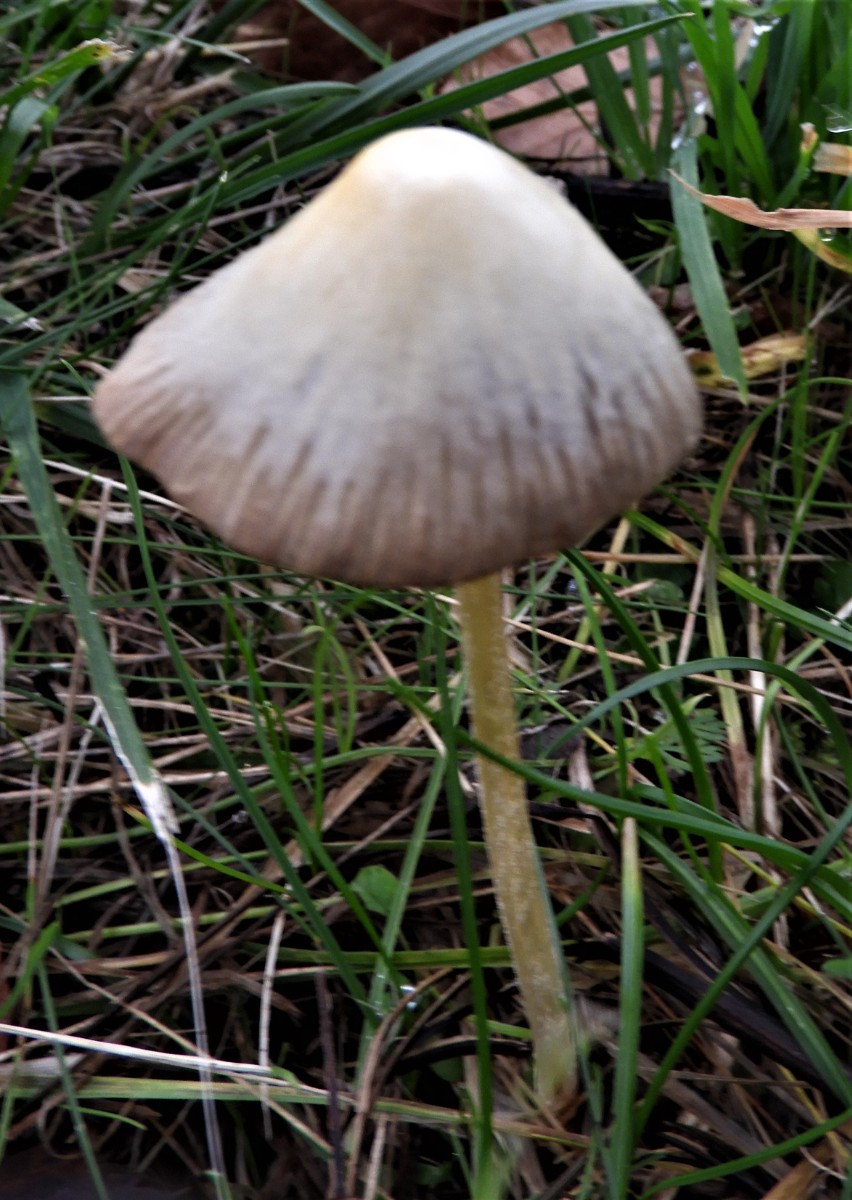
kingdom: Fungi
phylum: Basidiomycota
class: Agaricomycetes
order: Agaricales
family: Bolbitiaceae
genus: Bolbitius
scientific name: Bolbitius titubans
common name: almindelig gulhat
